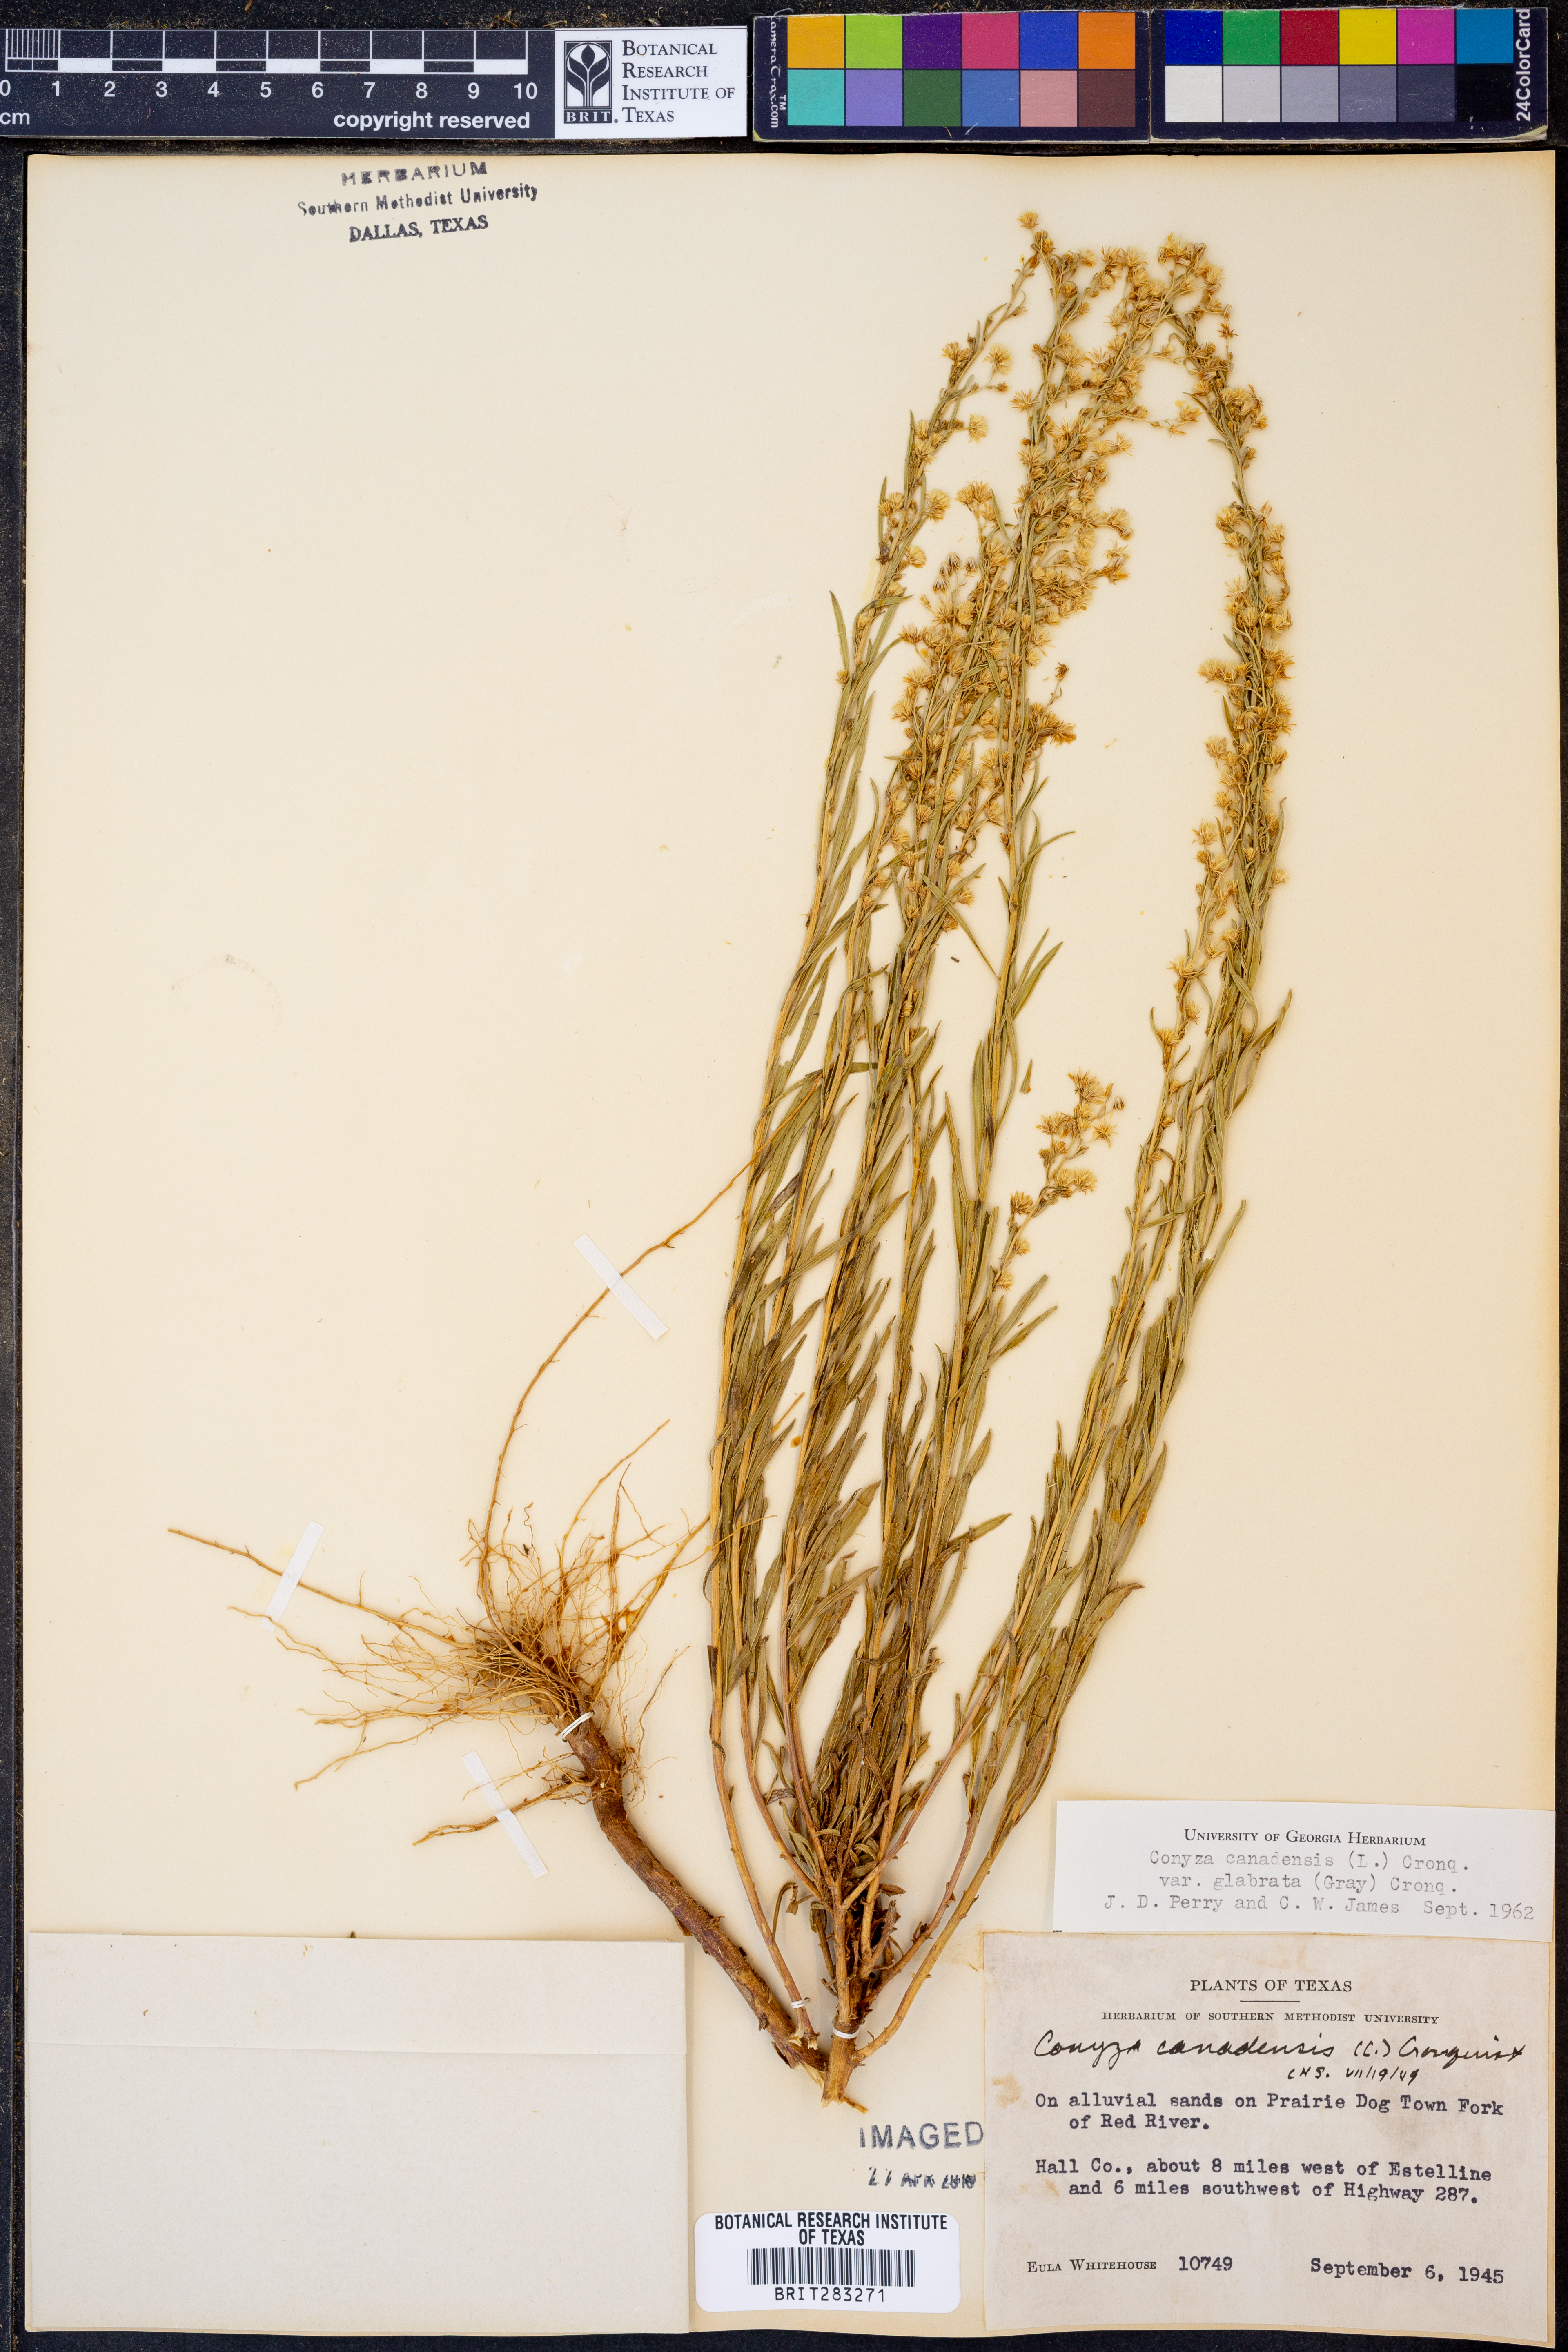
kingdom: Plantae
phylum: Tracheophyta
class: Magnoliopsida
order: Asterales
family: Asteraceae
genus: Erigeron
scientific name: Erigeron canadensis
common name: Canadian fleabane
